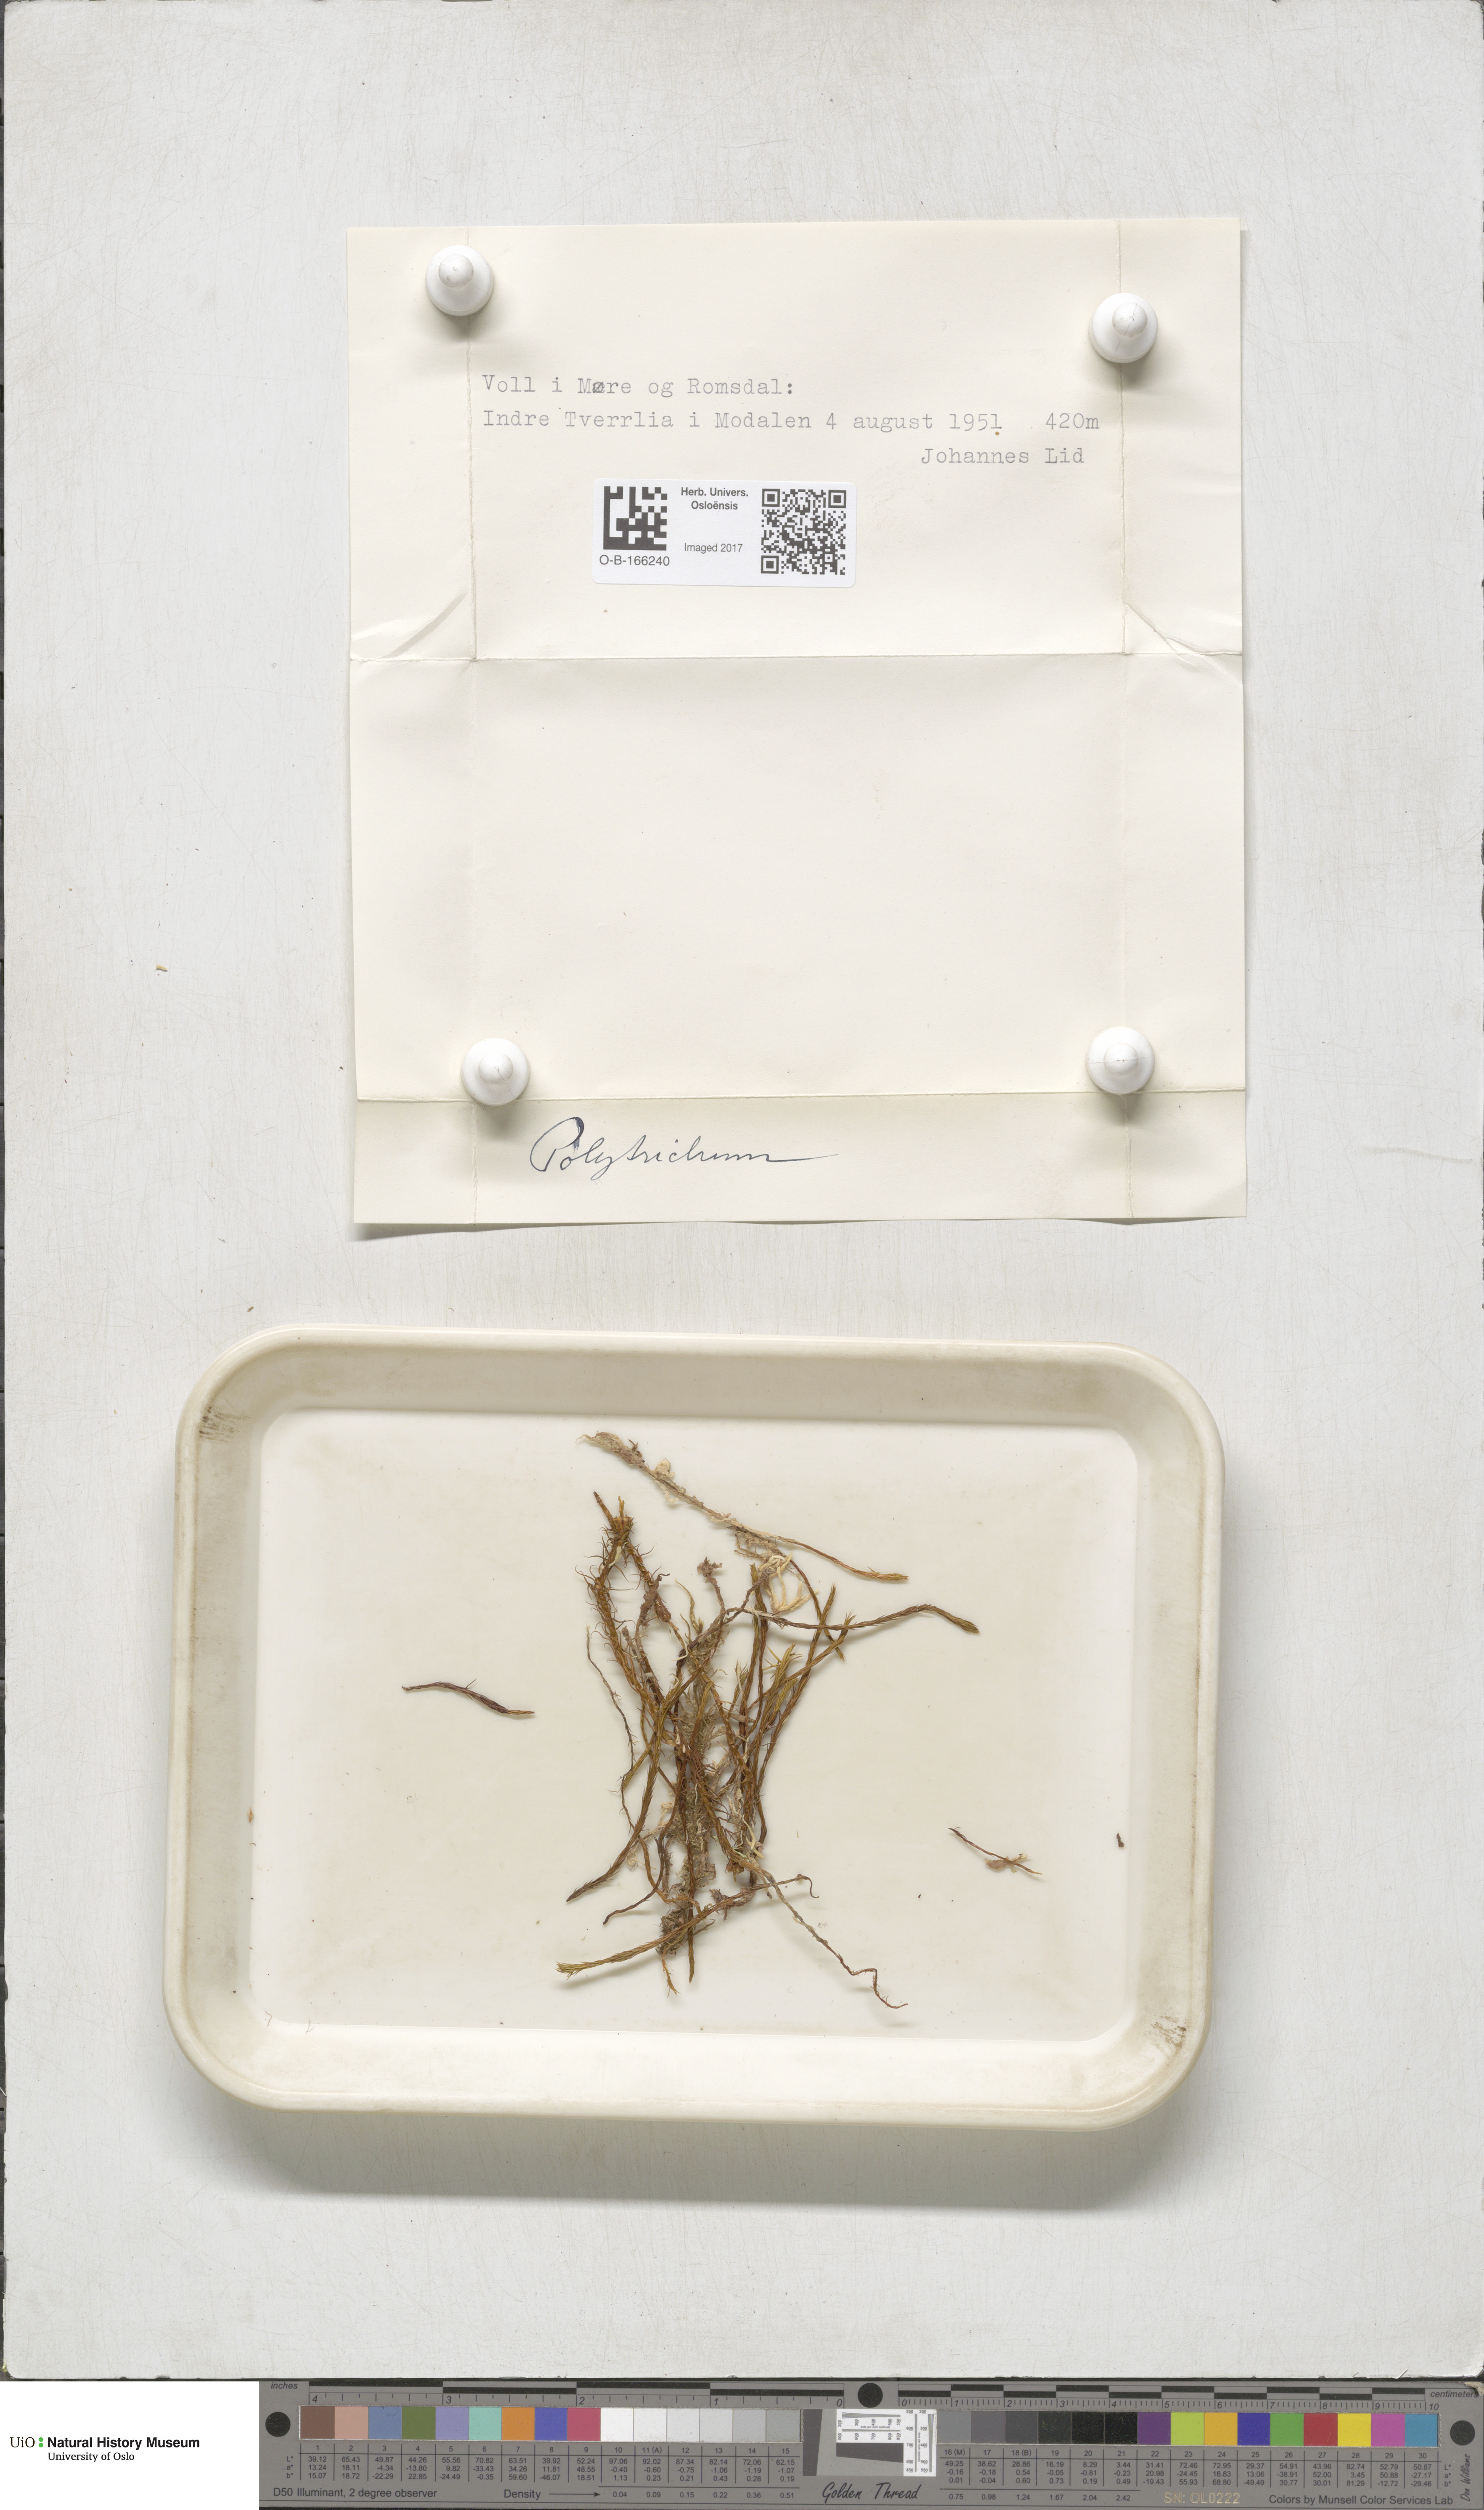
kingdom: Plantae
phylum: Bryophyta
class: Polytrichopsida
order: Polytrichales
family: Polytrichaceae
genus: Polytrichum
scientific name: Polytrichum
